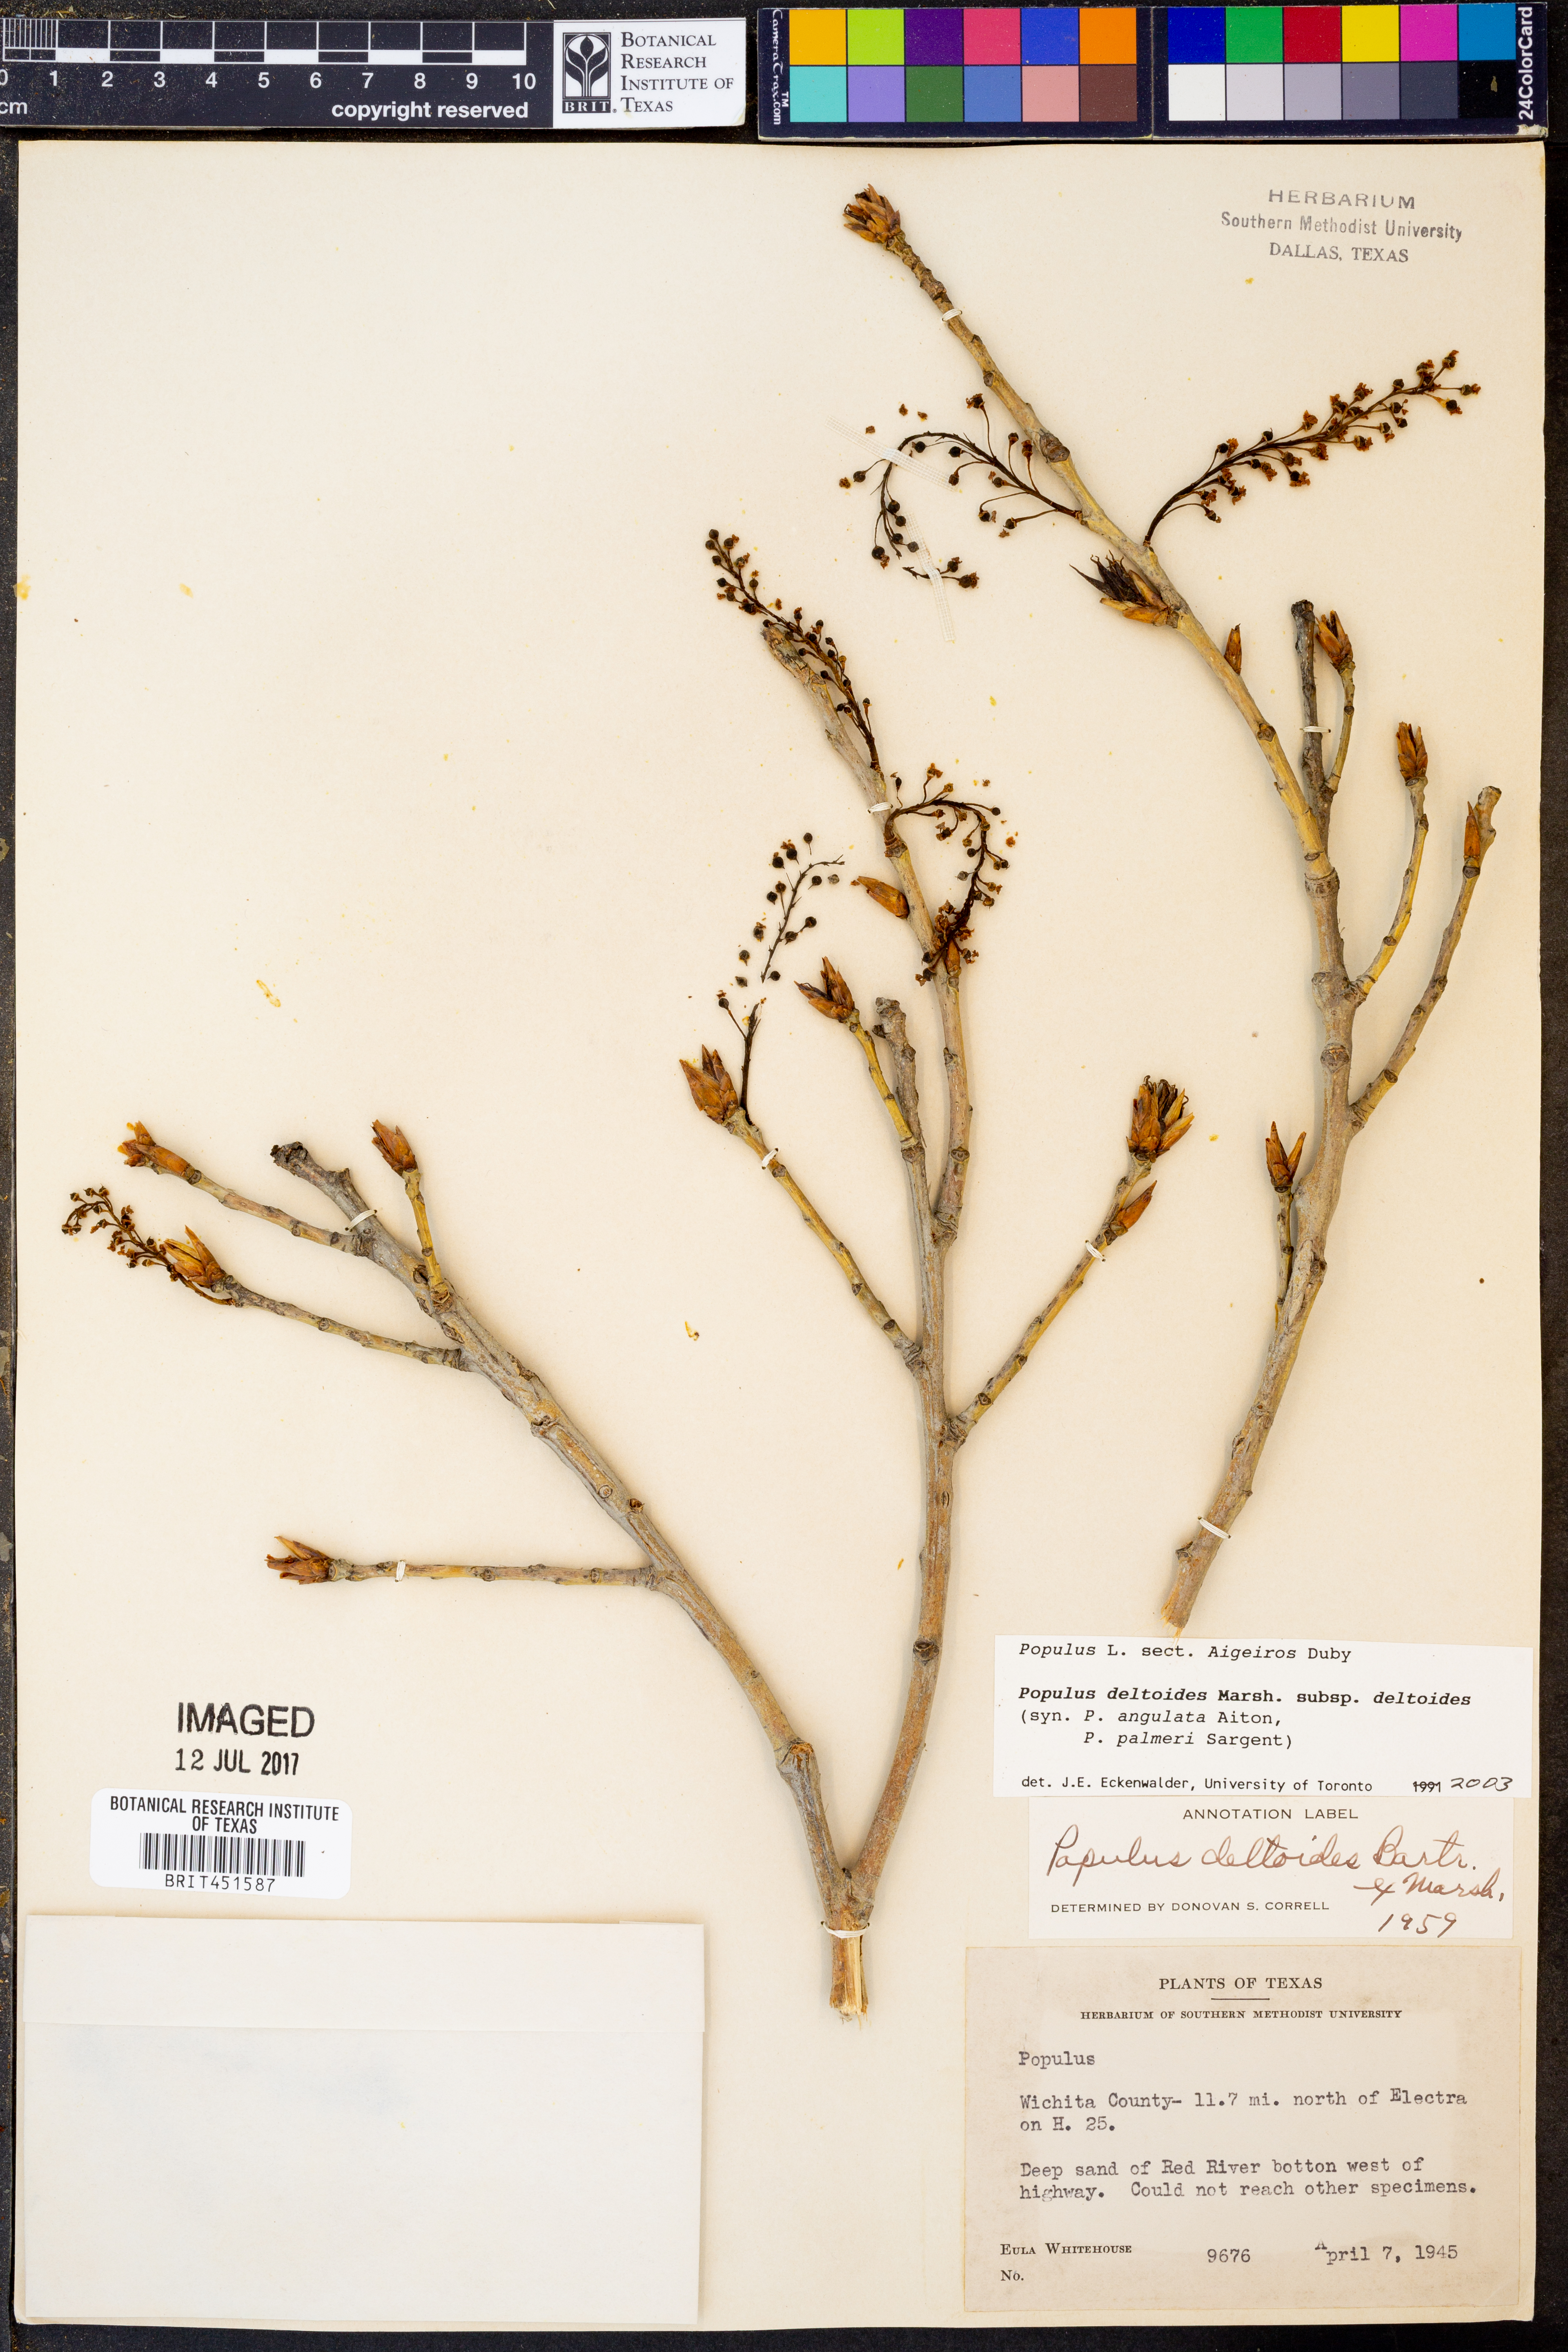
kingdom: Plantae
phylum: Tracheophyta
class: Magnoliopsida
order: Malpighiales
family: Salicaceae
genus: Populus
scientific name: Populus deltoides
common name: Eastern cottonwood
